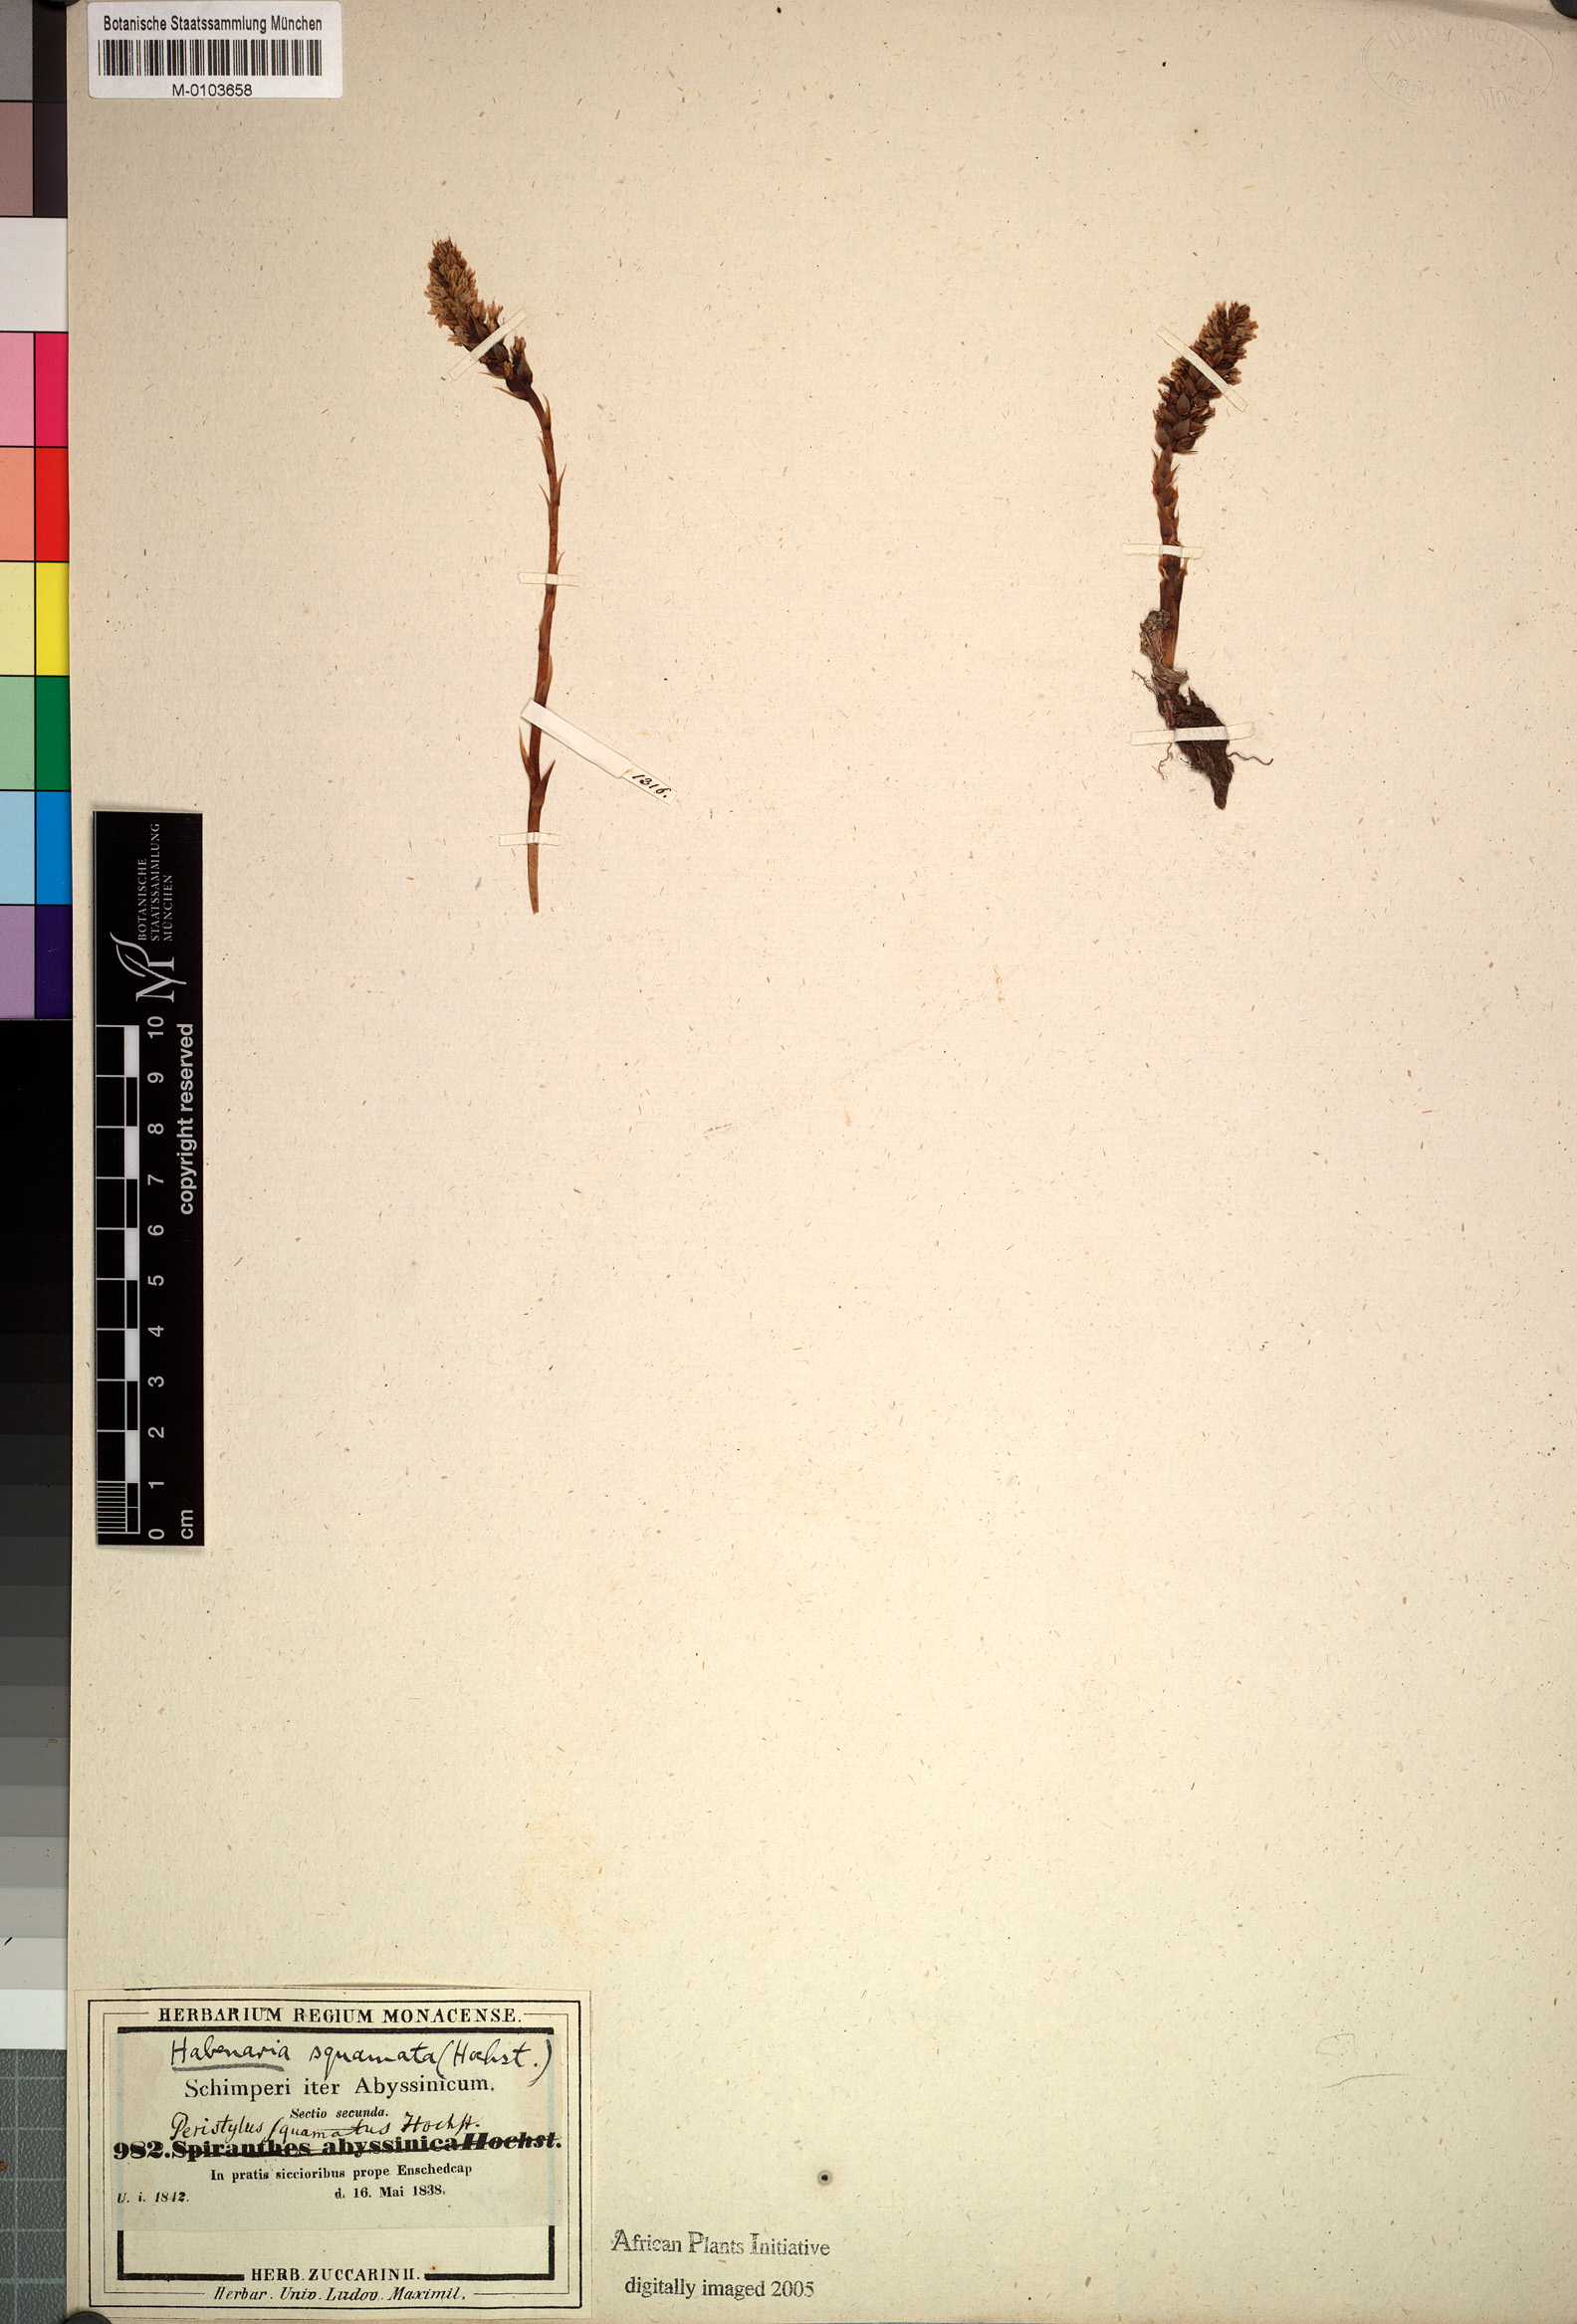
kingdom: Plantae
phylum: Tracheophyta
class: Liliopsida
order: Asparagales
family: Orchidaceae
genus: Holothrix
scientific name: Holothrix squammata
